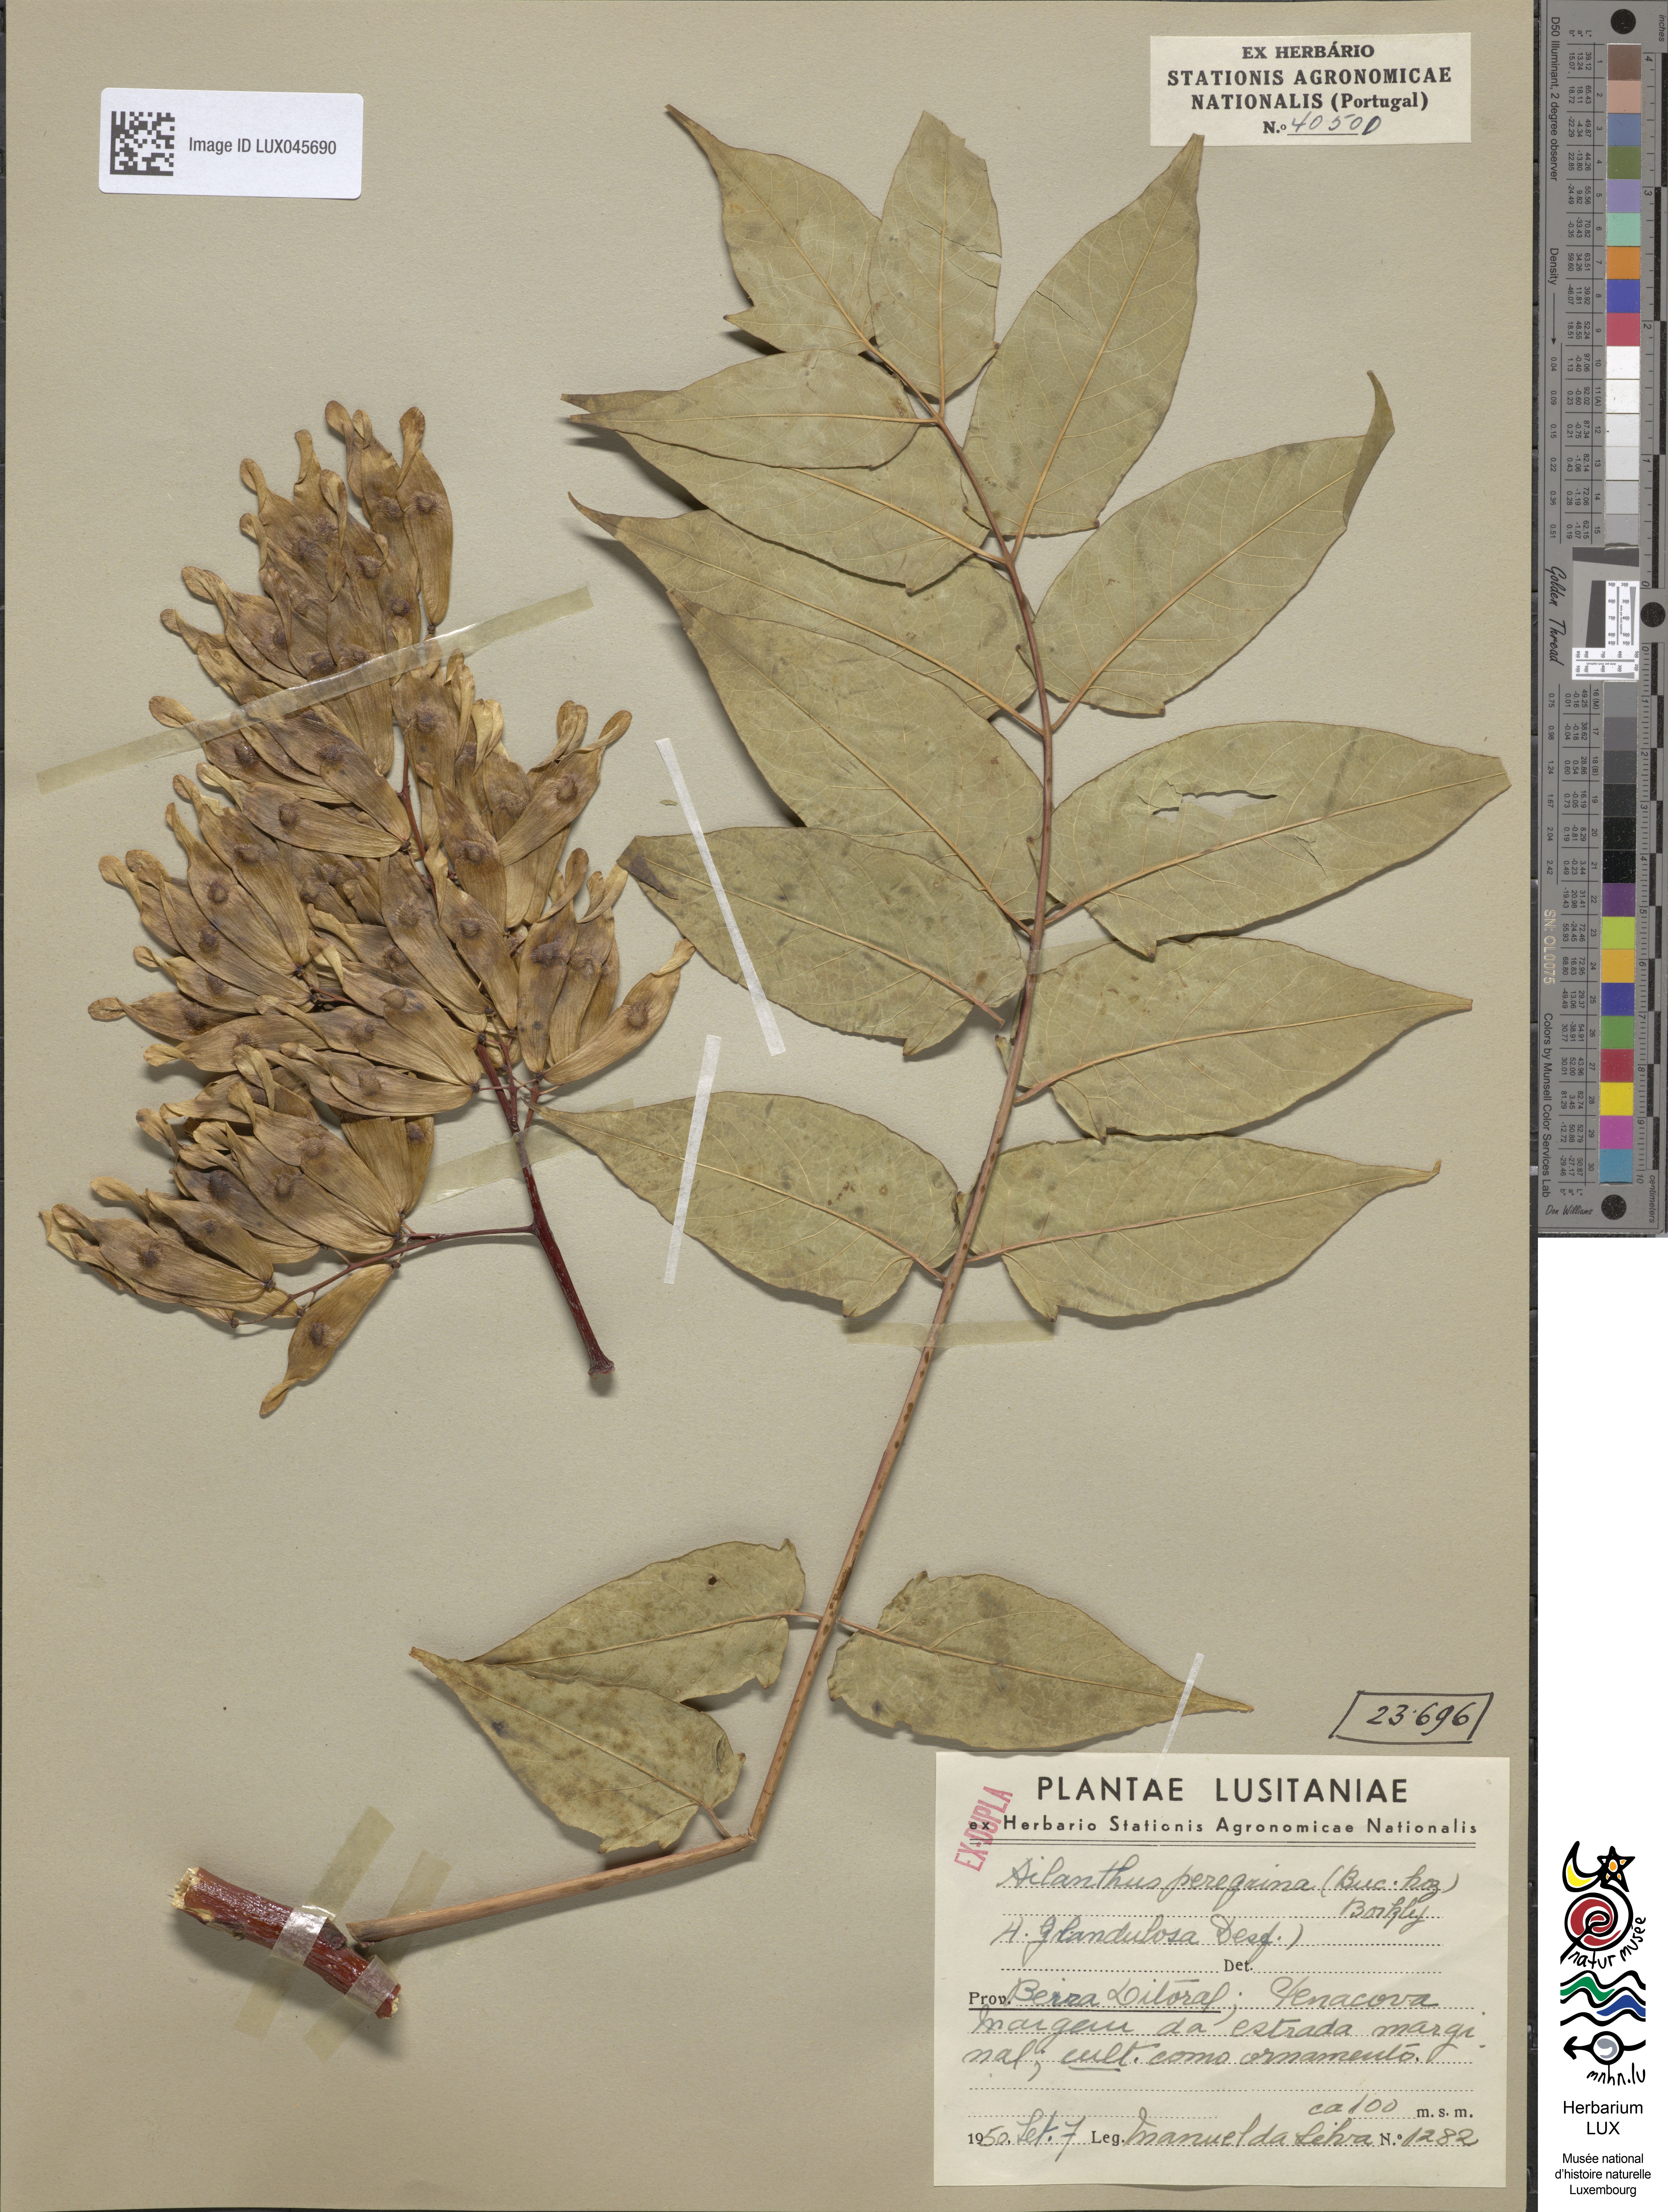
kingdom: Plantae
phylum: Tracheophyta
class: Magnoliopsida
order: Sapindales
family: Simaroubaceae
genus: Ailanthus
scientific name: Ailanthus altissima
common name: Tree-of-heaven
